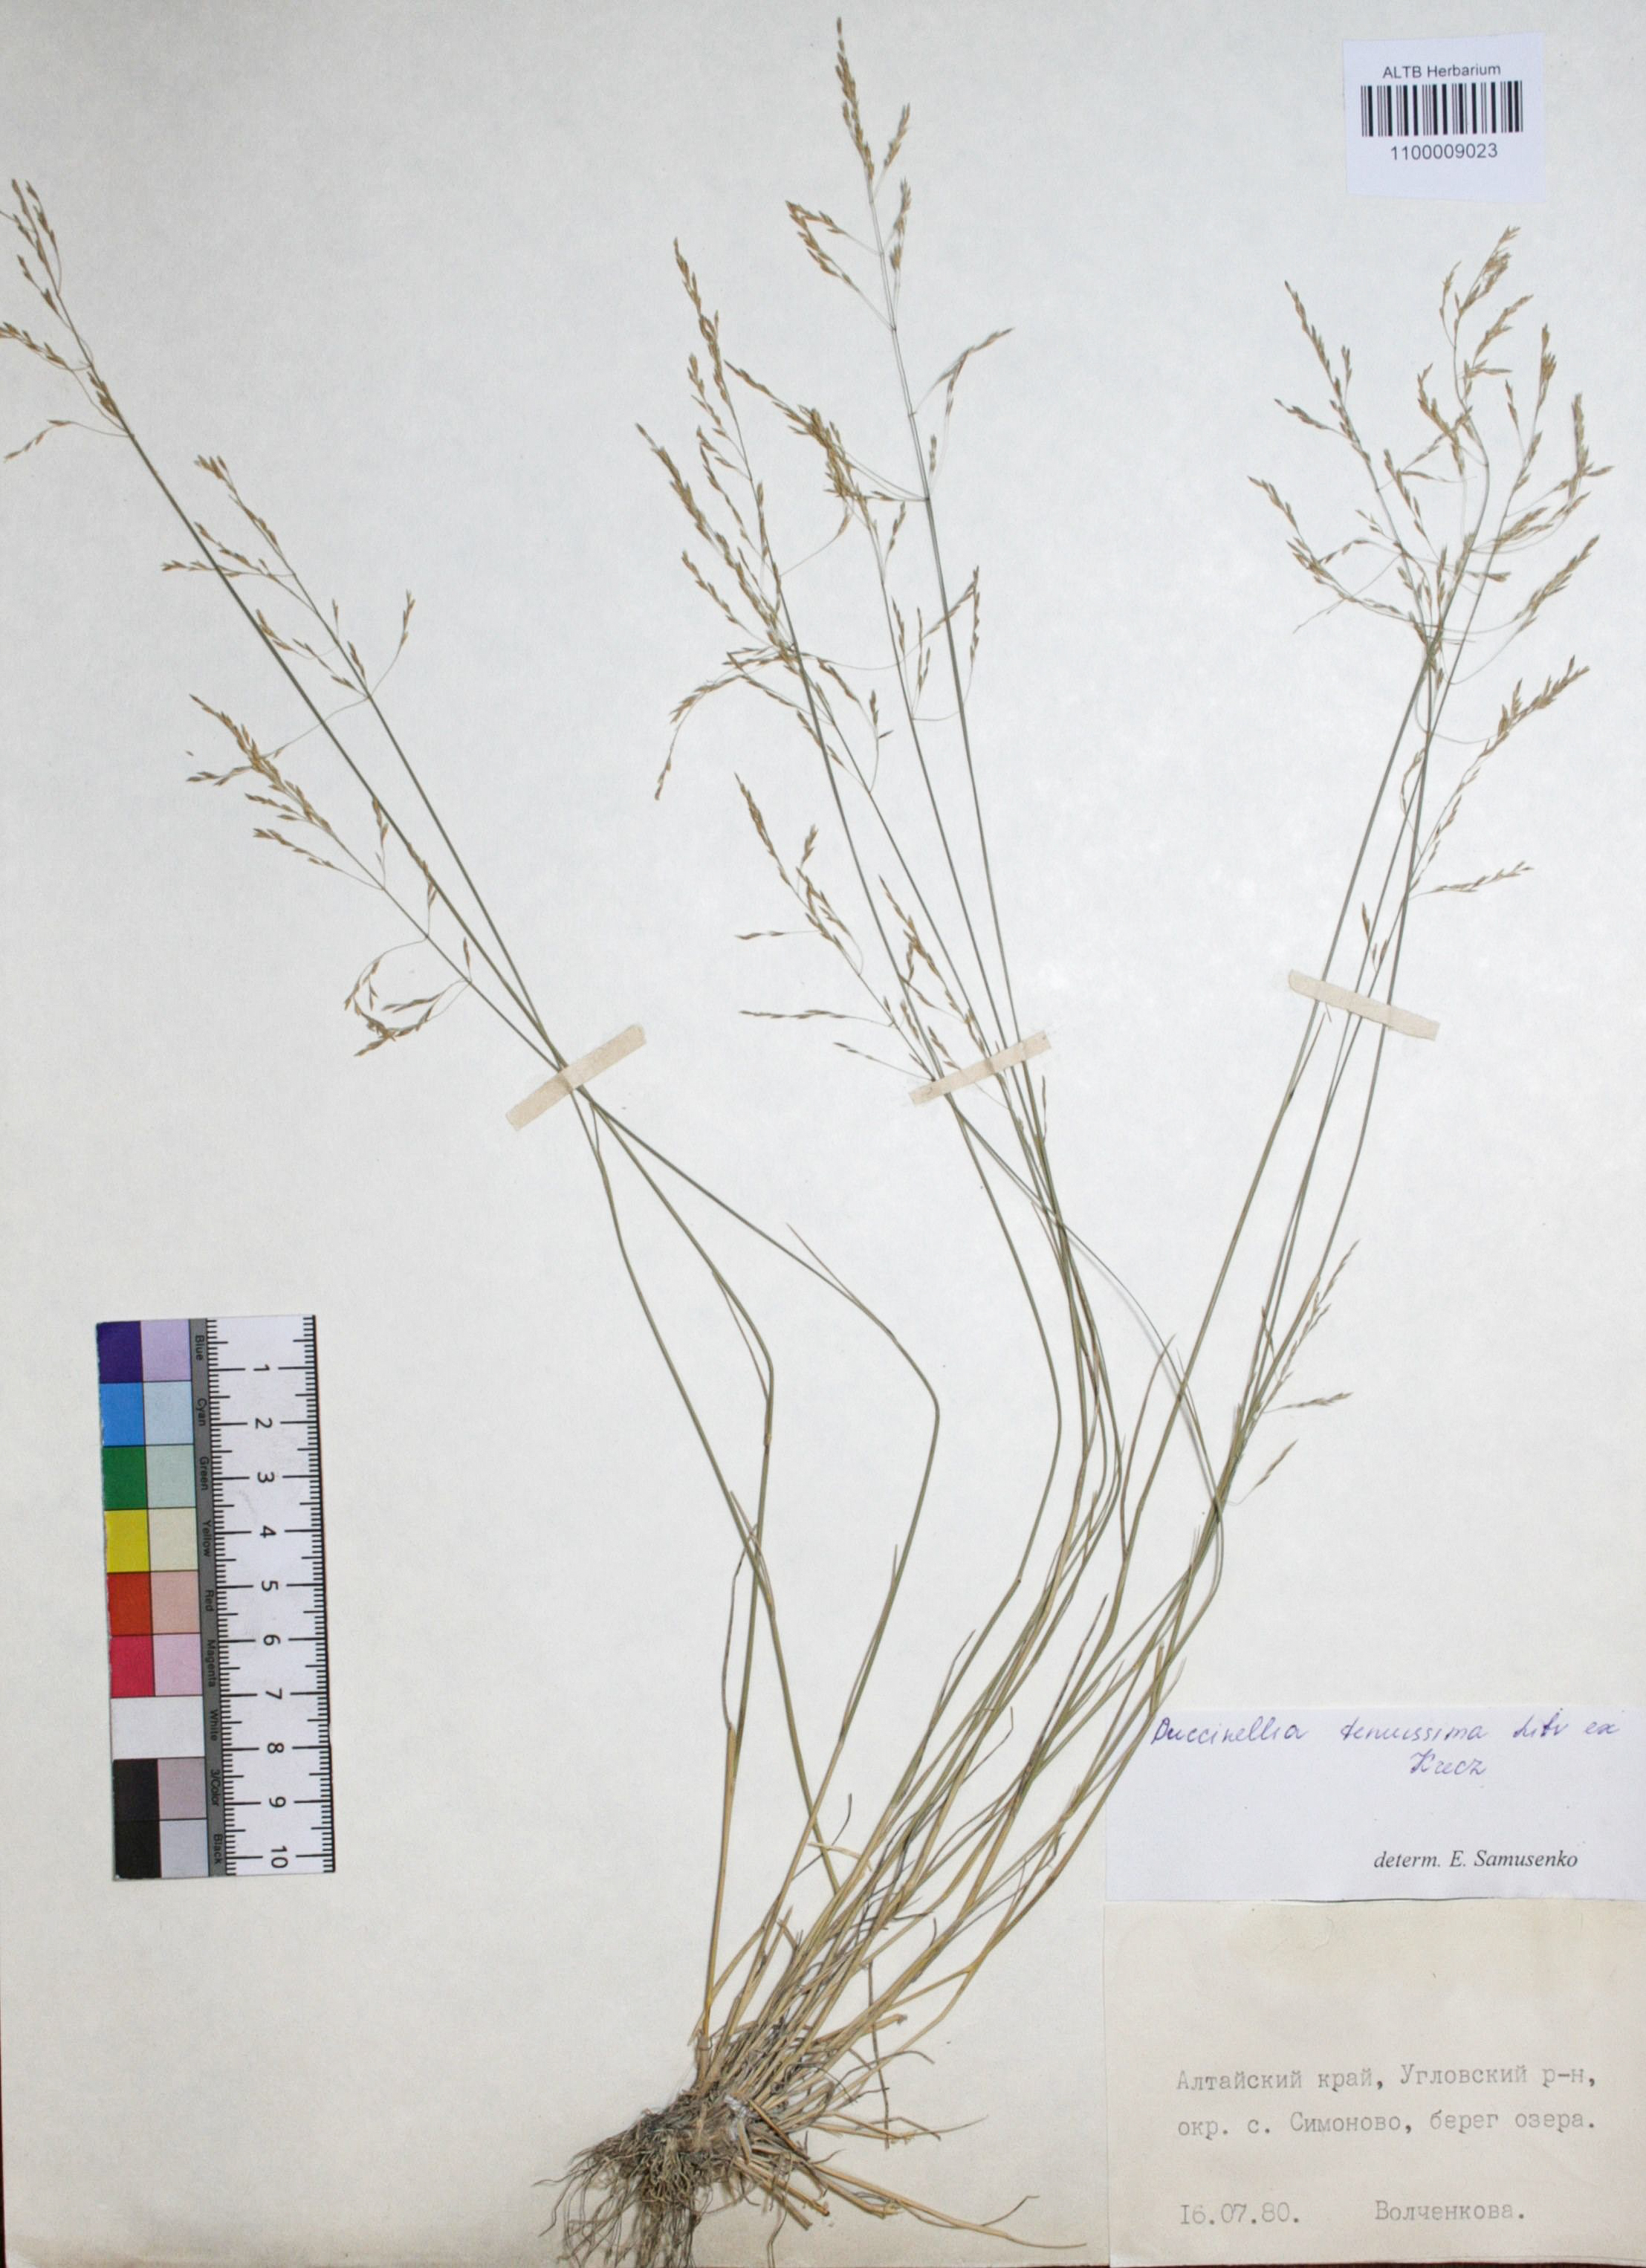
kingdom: Plantae
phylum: Tracheophyta
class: Liliopsida
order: Poales
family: Poaceae
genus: Puccinellia
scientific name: Puccinellia tenuissima
